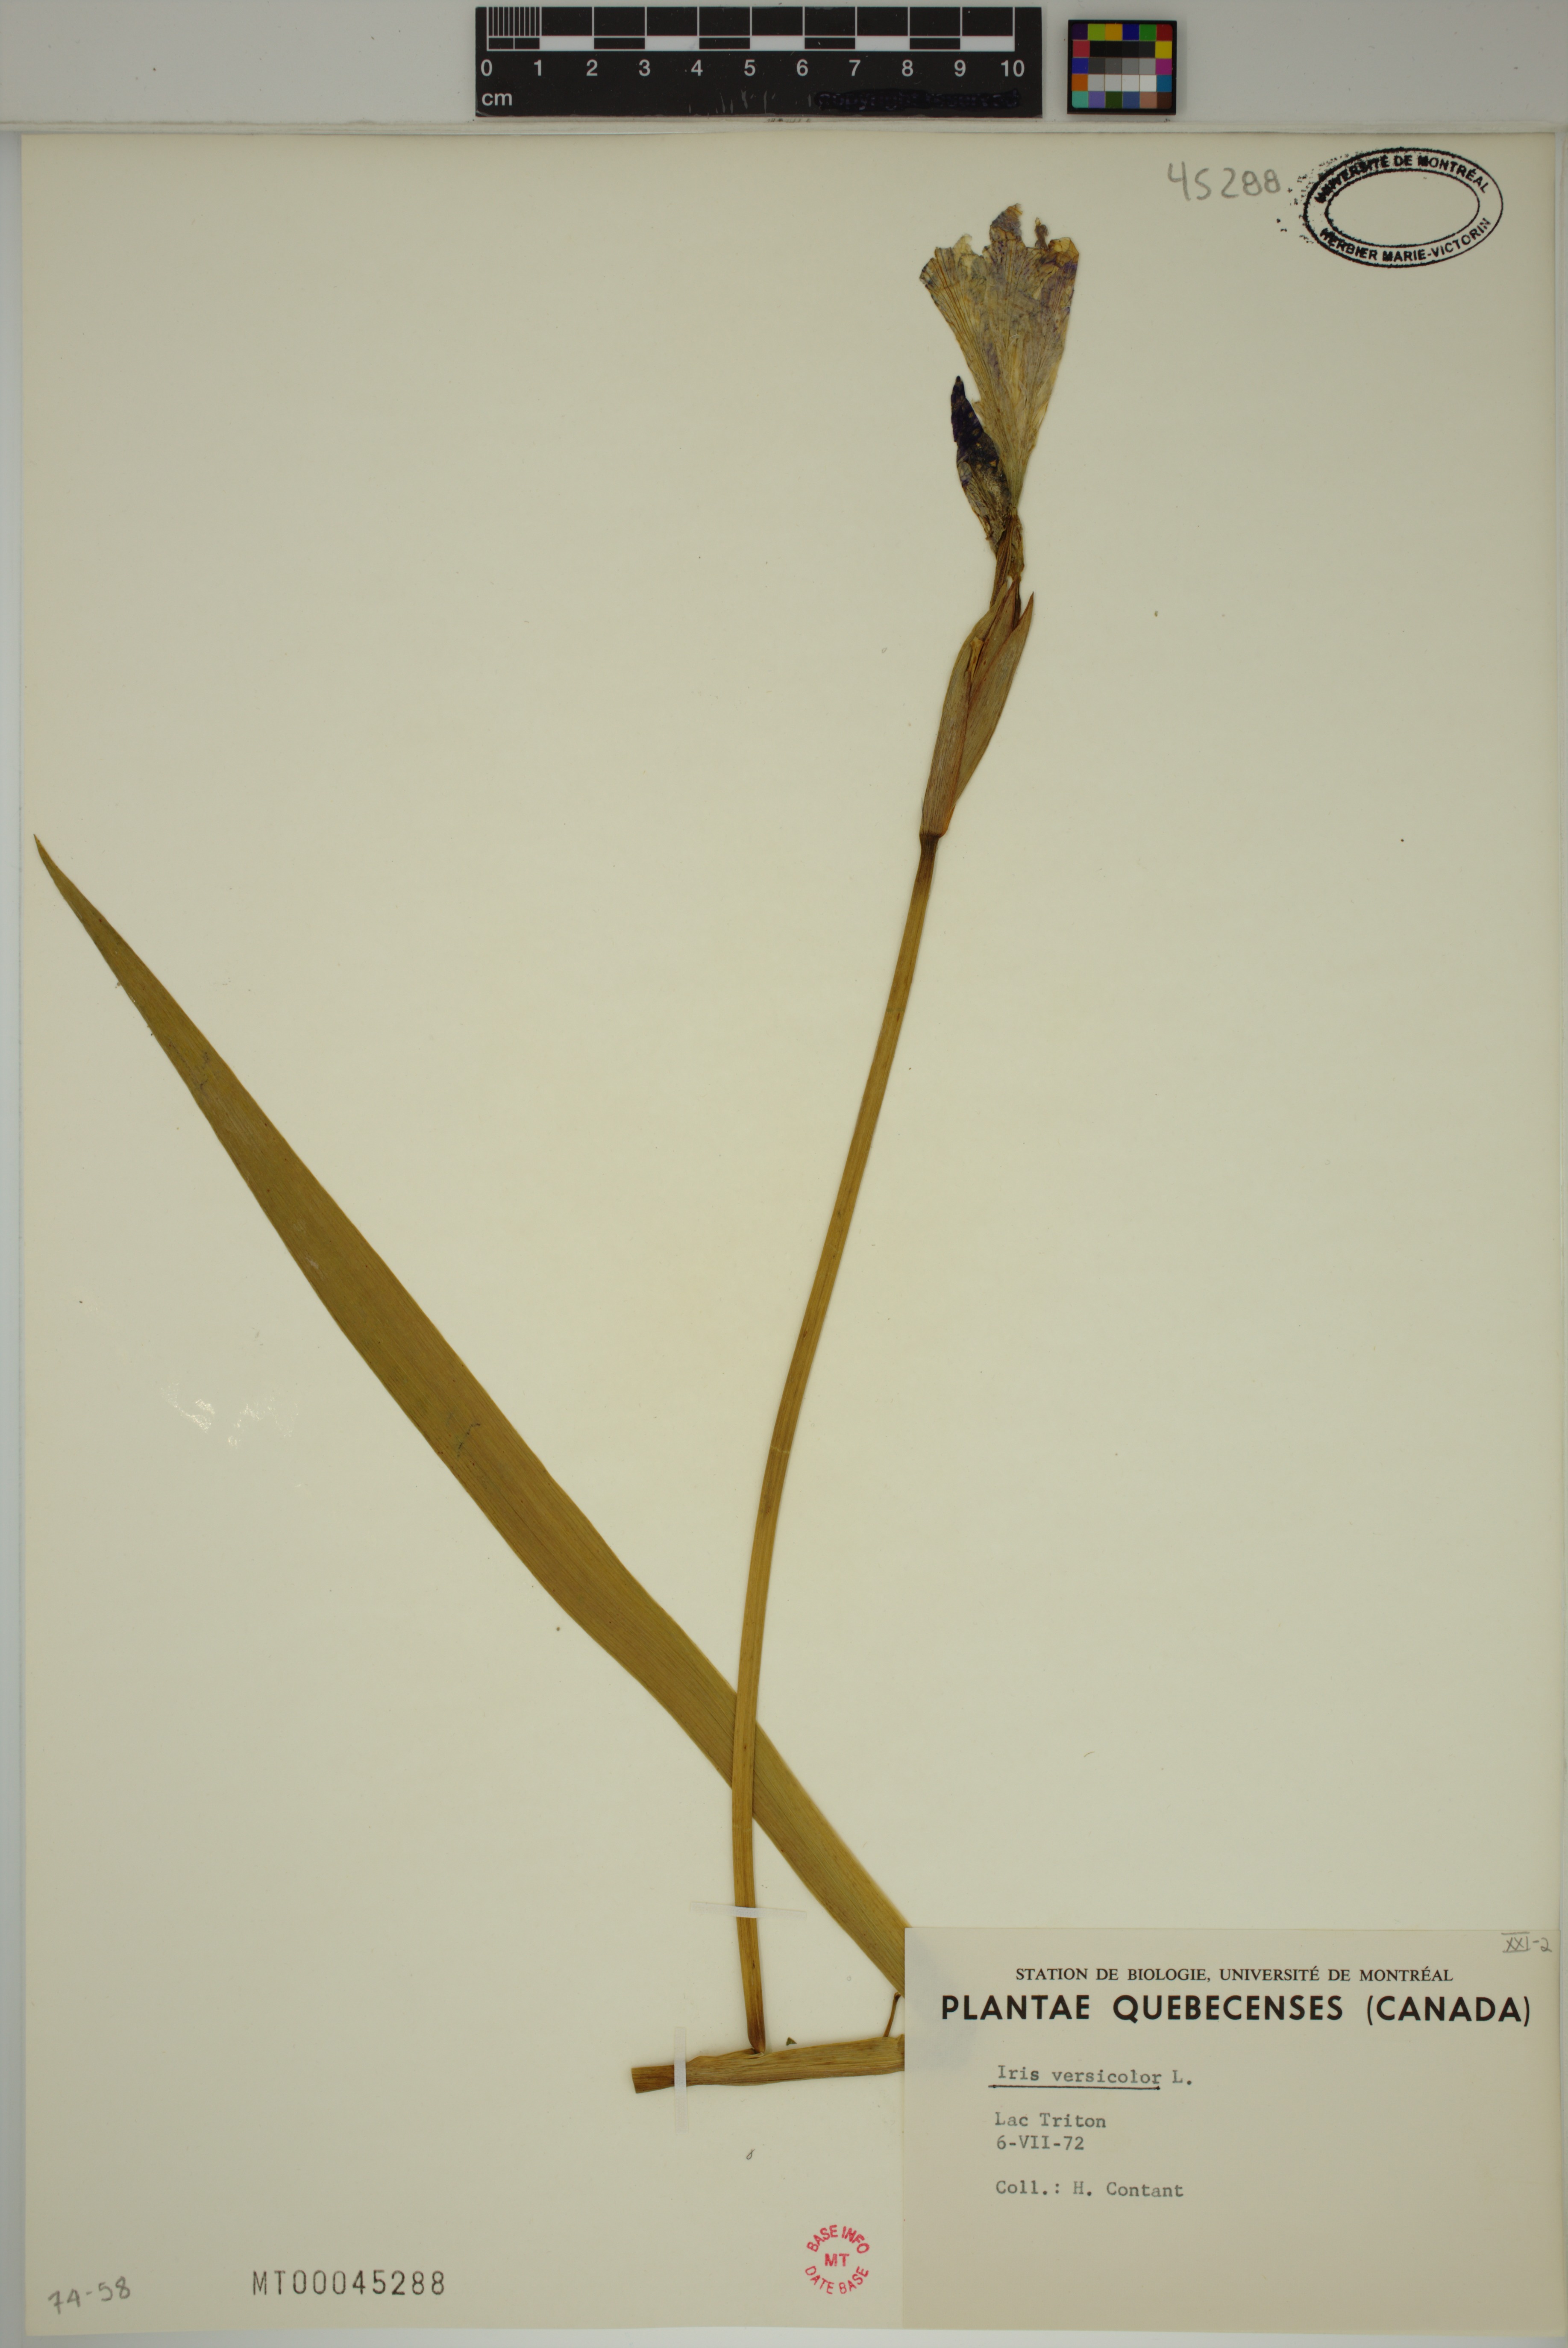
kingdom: Plantae
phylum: Tracheophyta
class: Liliopsida
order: Asparagales
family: Iridaceae
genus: Iris
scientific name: Iris versicolor
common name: Purple iris
